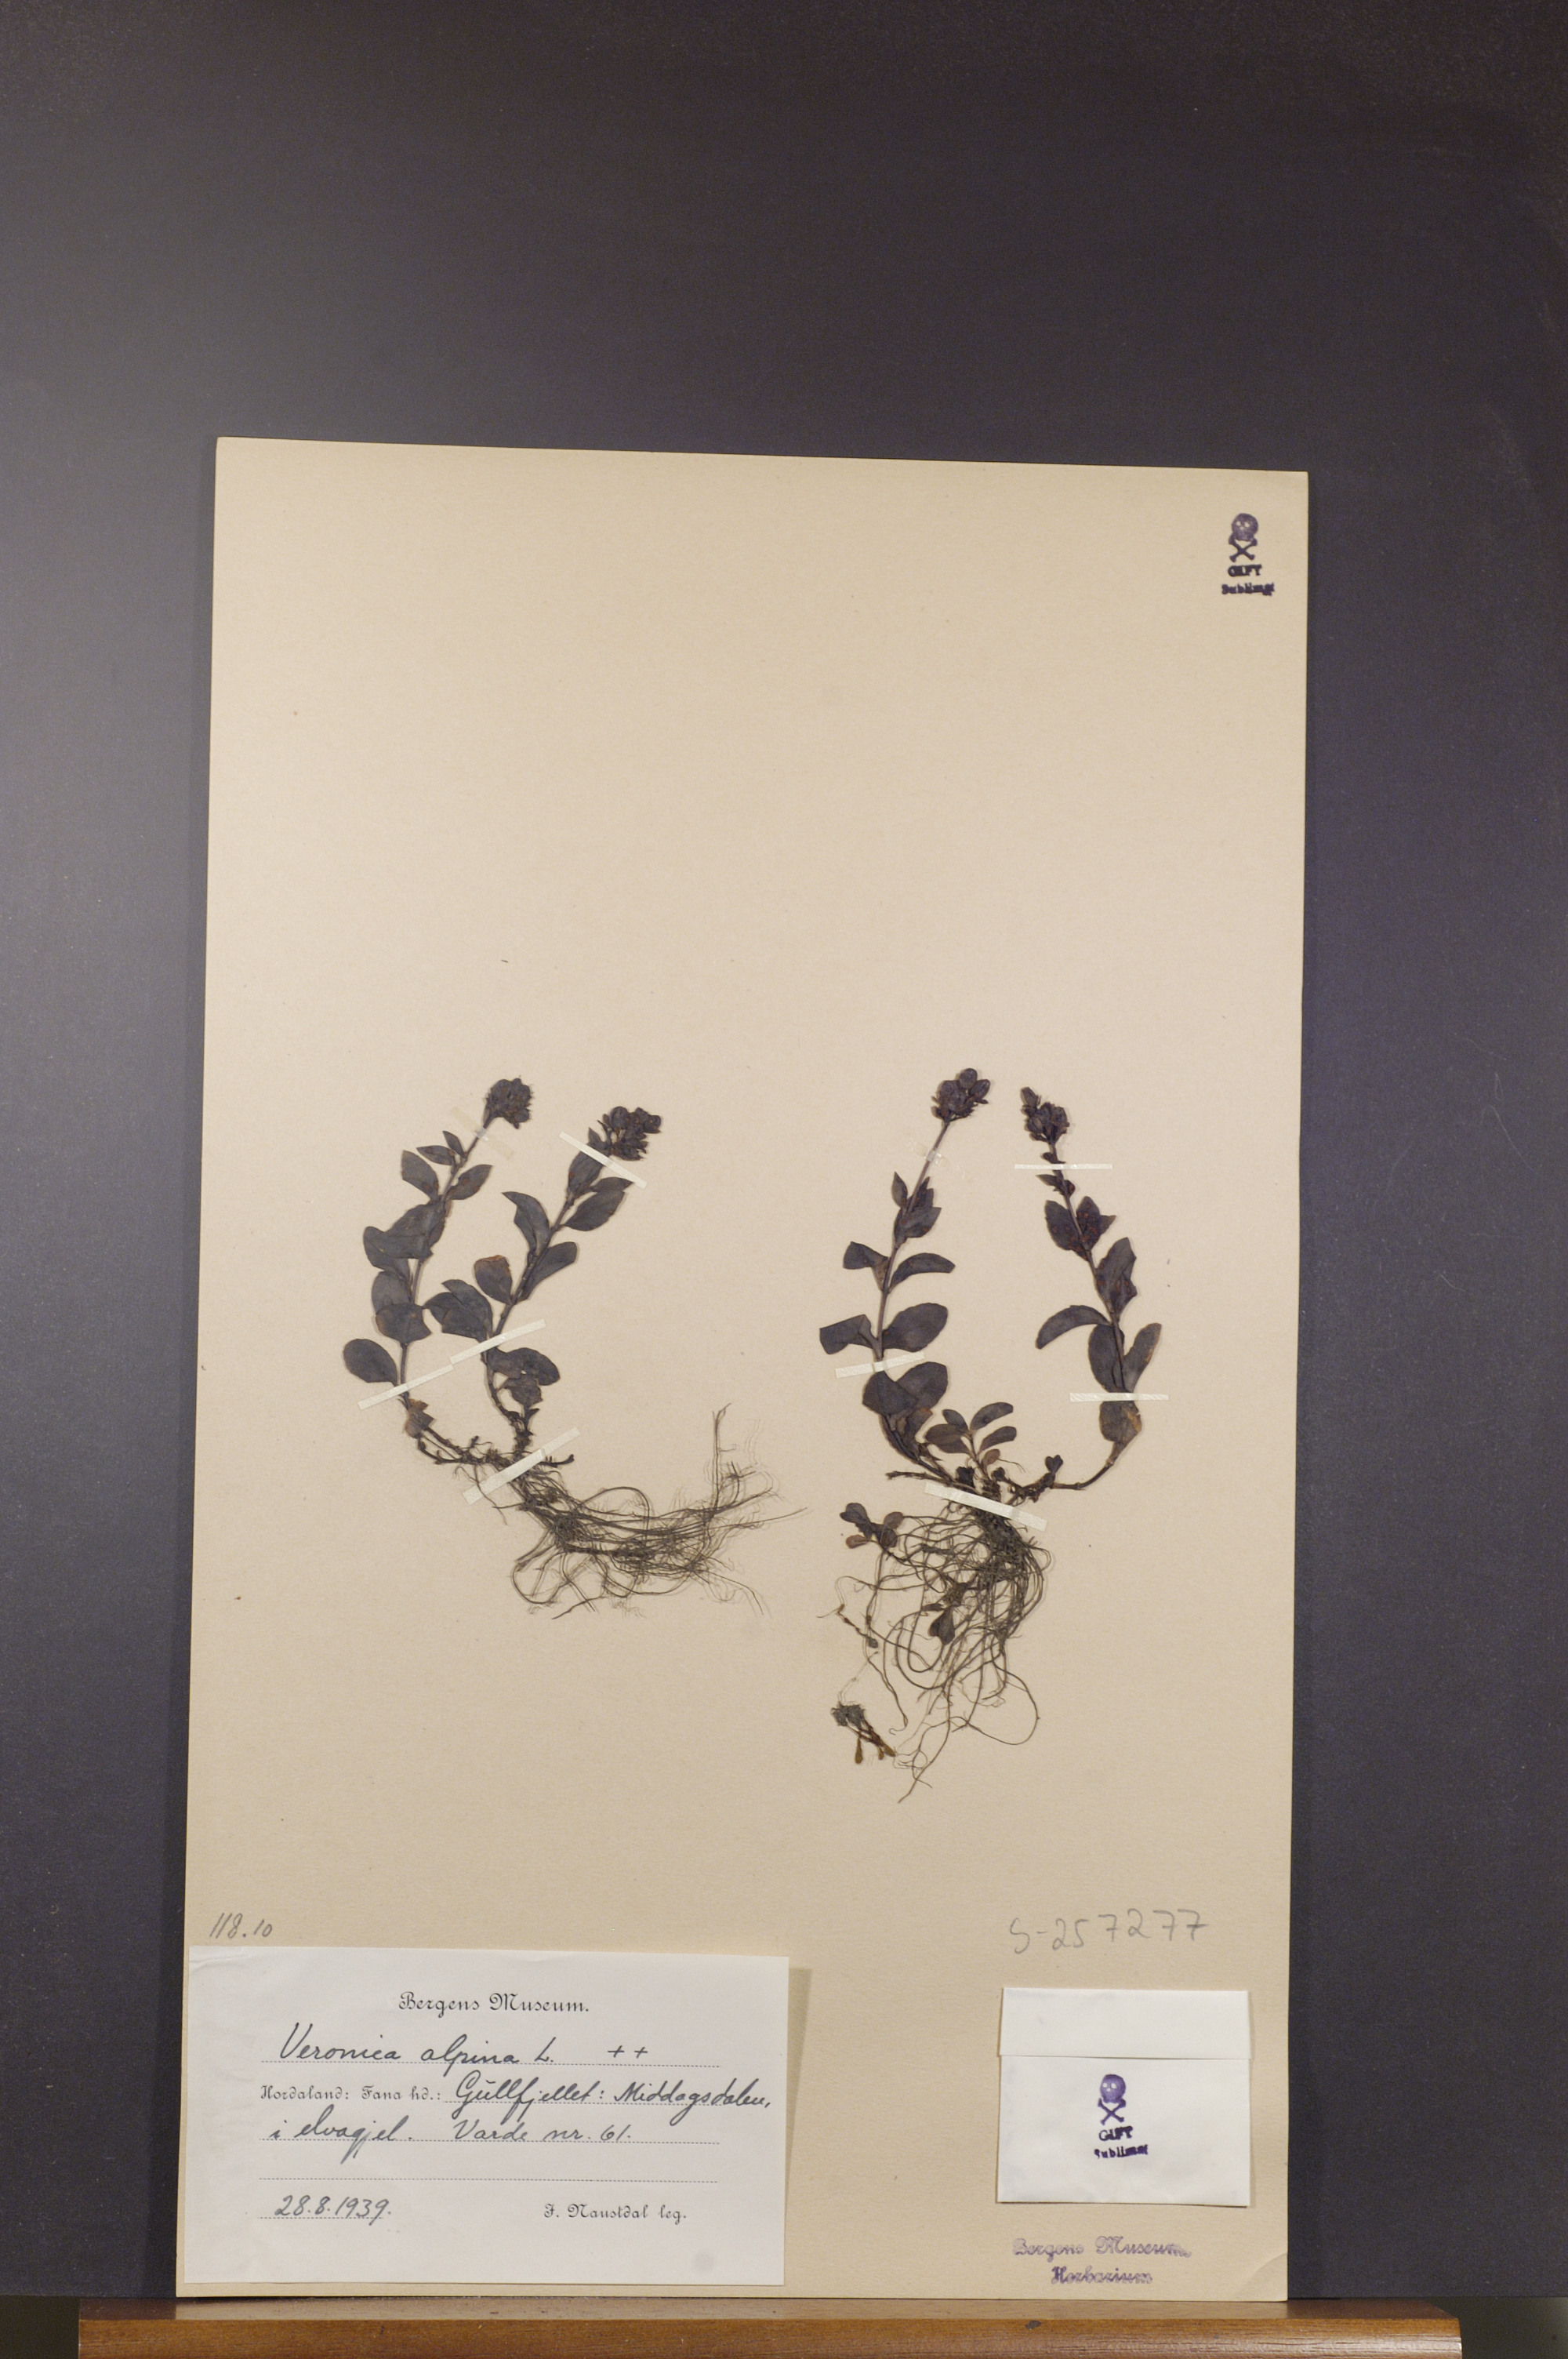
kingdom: Plantae
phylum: Tracheophyta
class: Magnoliopsida
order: Lamiales
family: Plantaginaceae
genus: Veronica
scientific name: Veronica alpina
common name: Alpine speedwell
